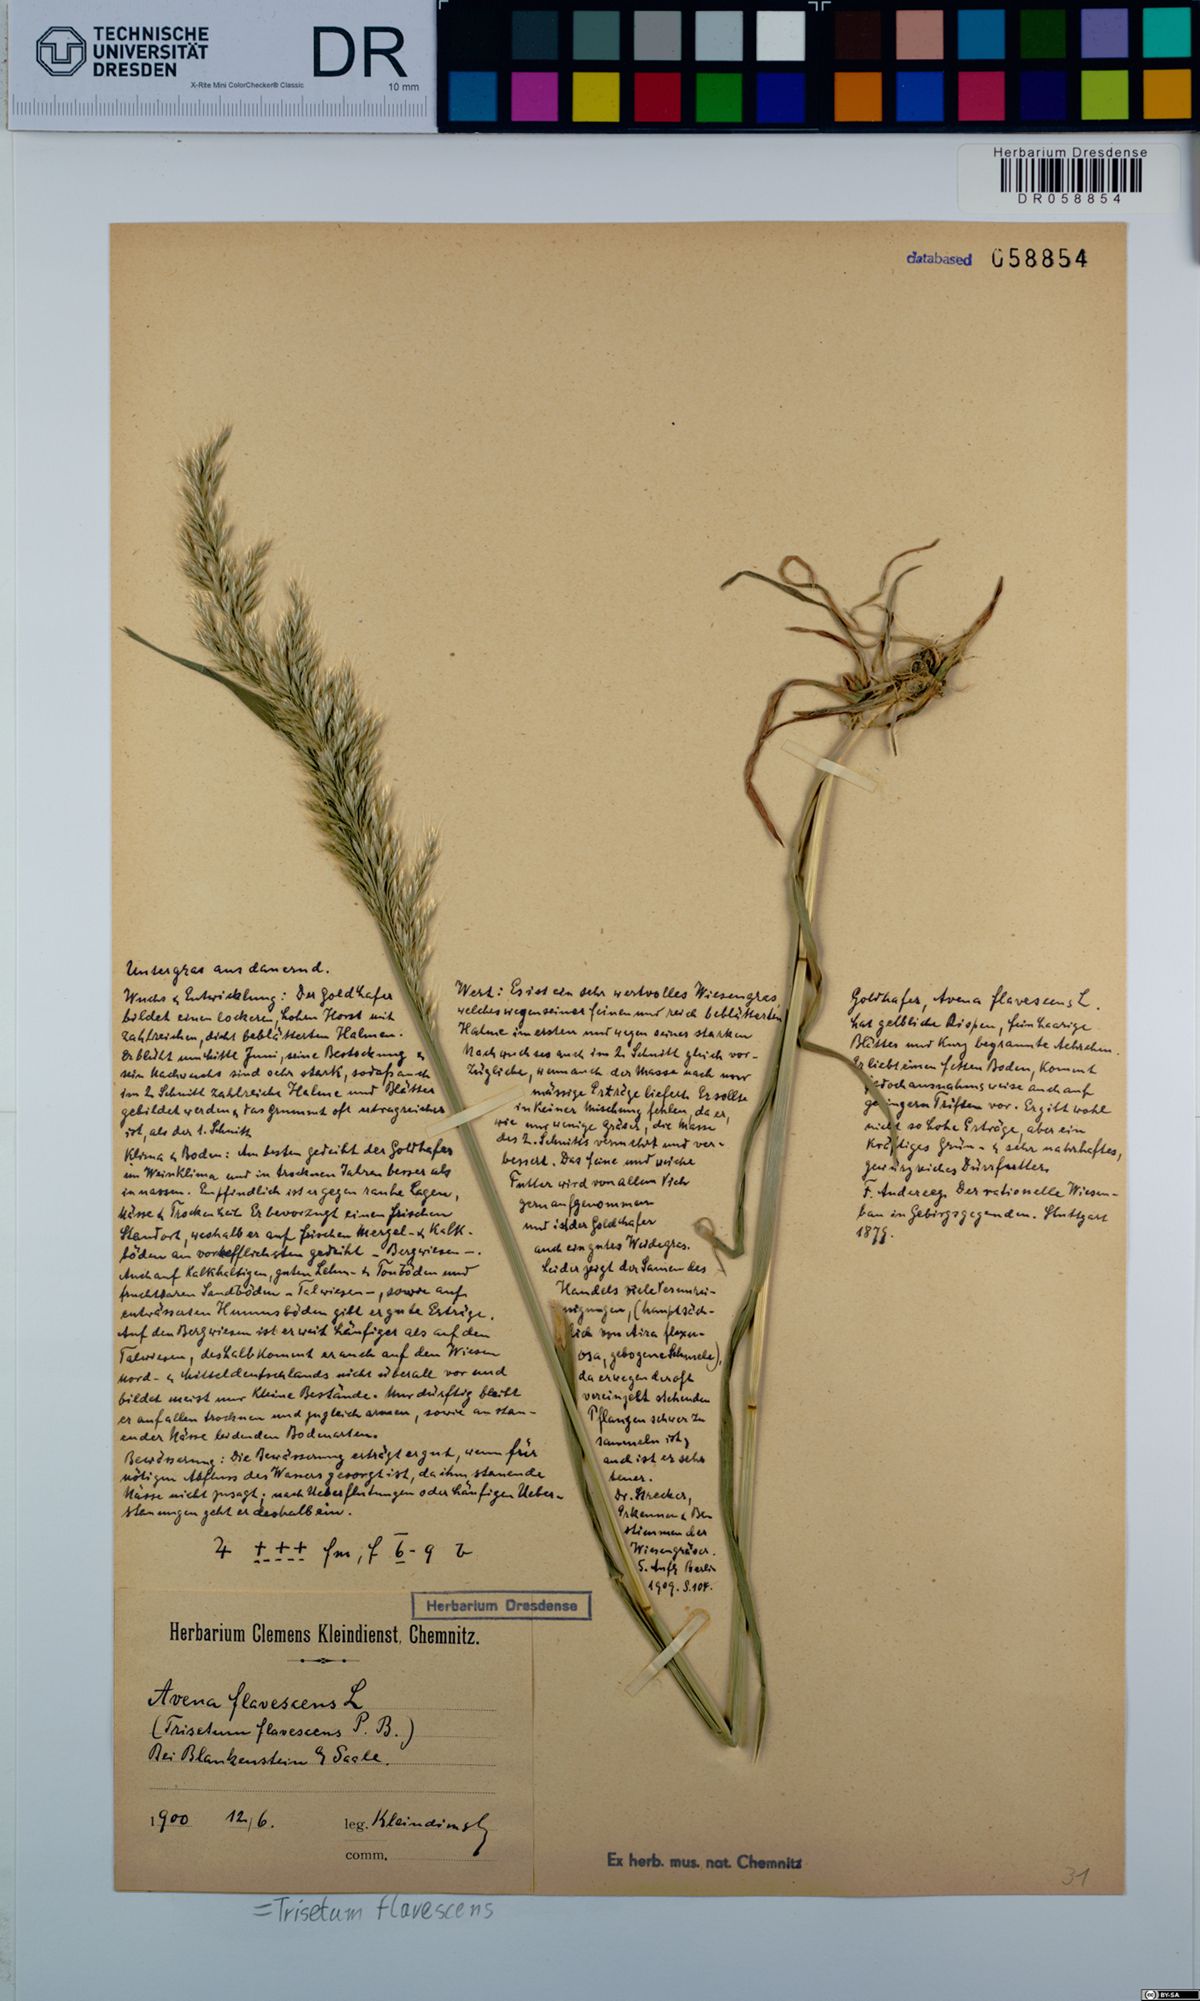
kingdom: Plantae
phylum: Tracheophyta
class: Liliopsida
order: Poales
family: Poaceae
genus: Trisetum
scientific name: Trisetum flavescens
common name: Yellow oat-grass
